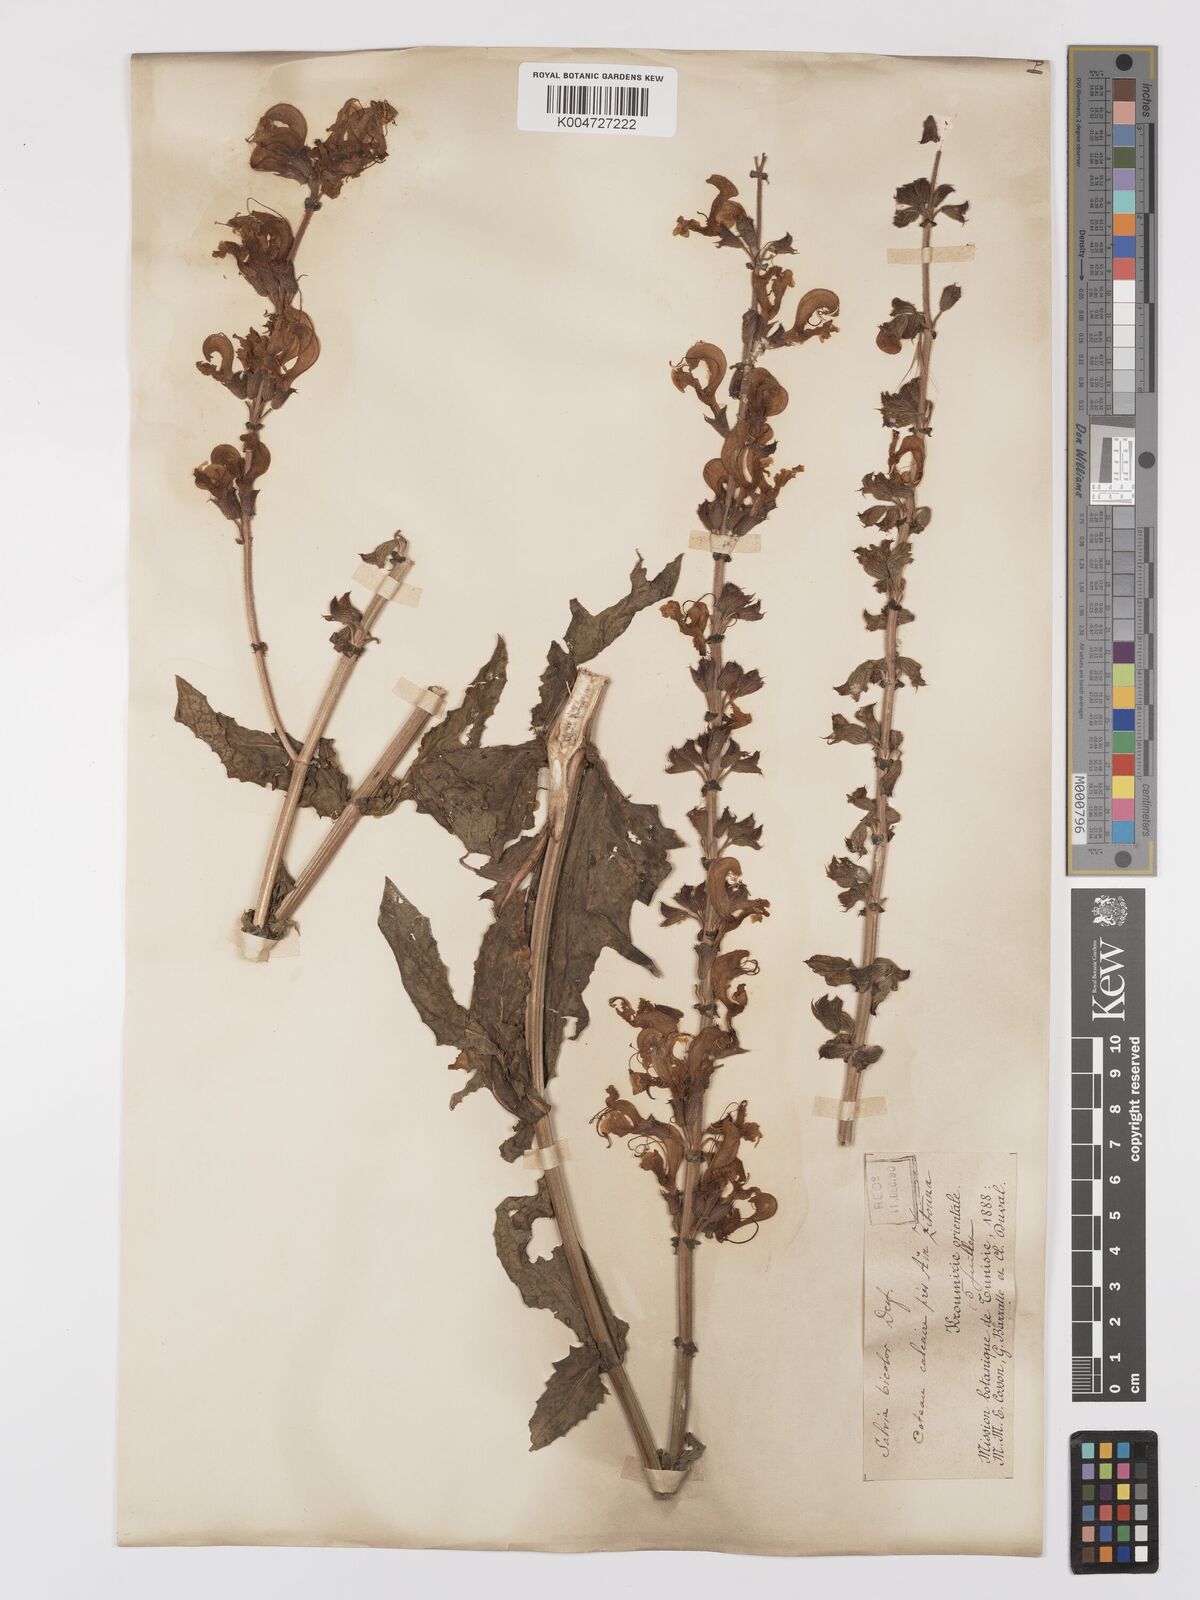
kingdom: Plantae
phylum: Tracheophyta
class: Magnoliopsida
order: Lamiales
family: Lamiaceae
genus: Salvia
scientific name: Salvia
